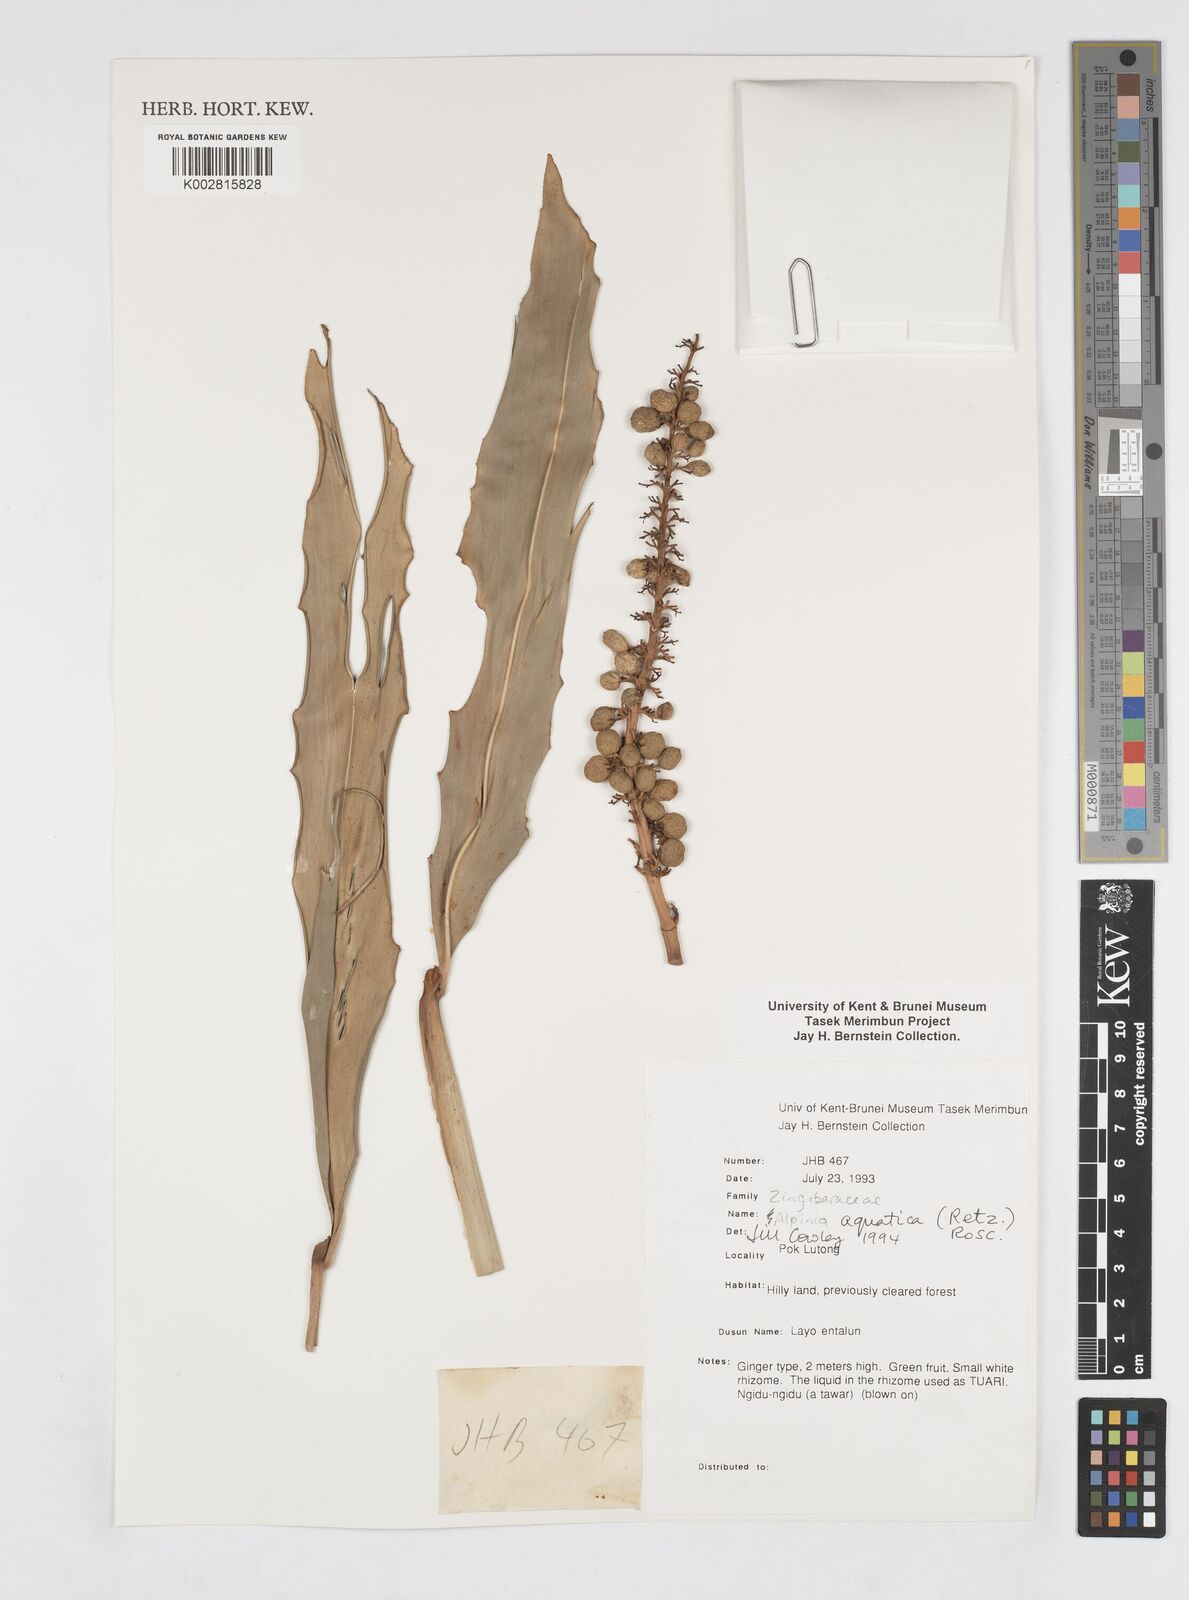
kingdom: Plantae
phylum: Tracheophyta
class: Liliopsida
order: Zingiberales
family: Zingiberaceae
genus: Alpinia
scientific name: Alpinia aquatica
